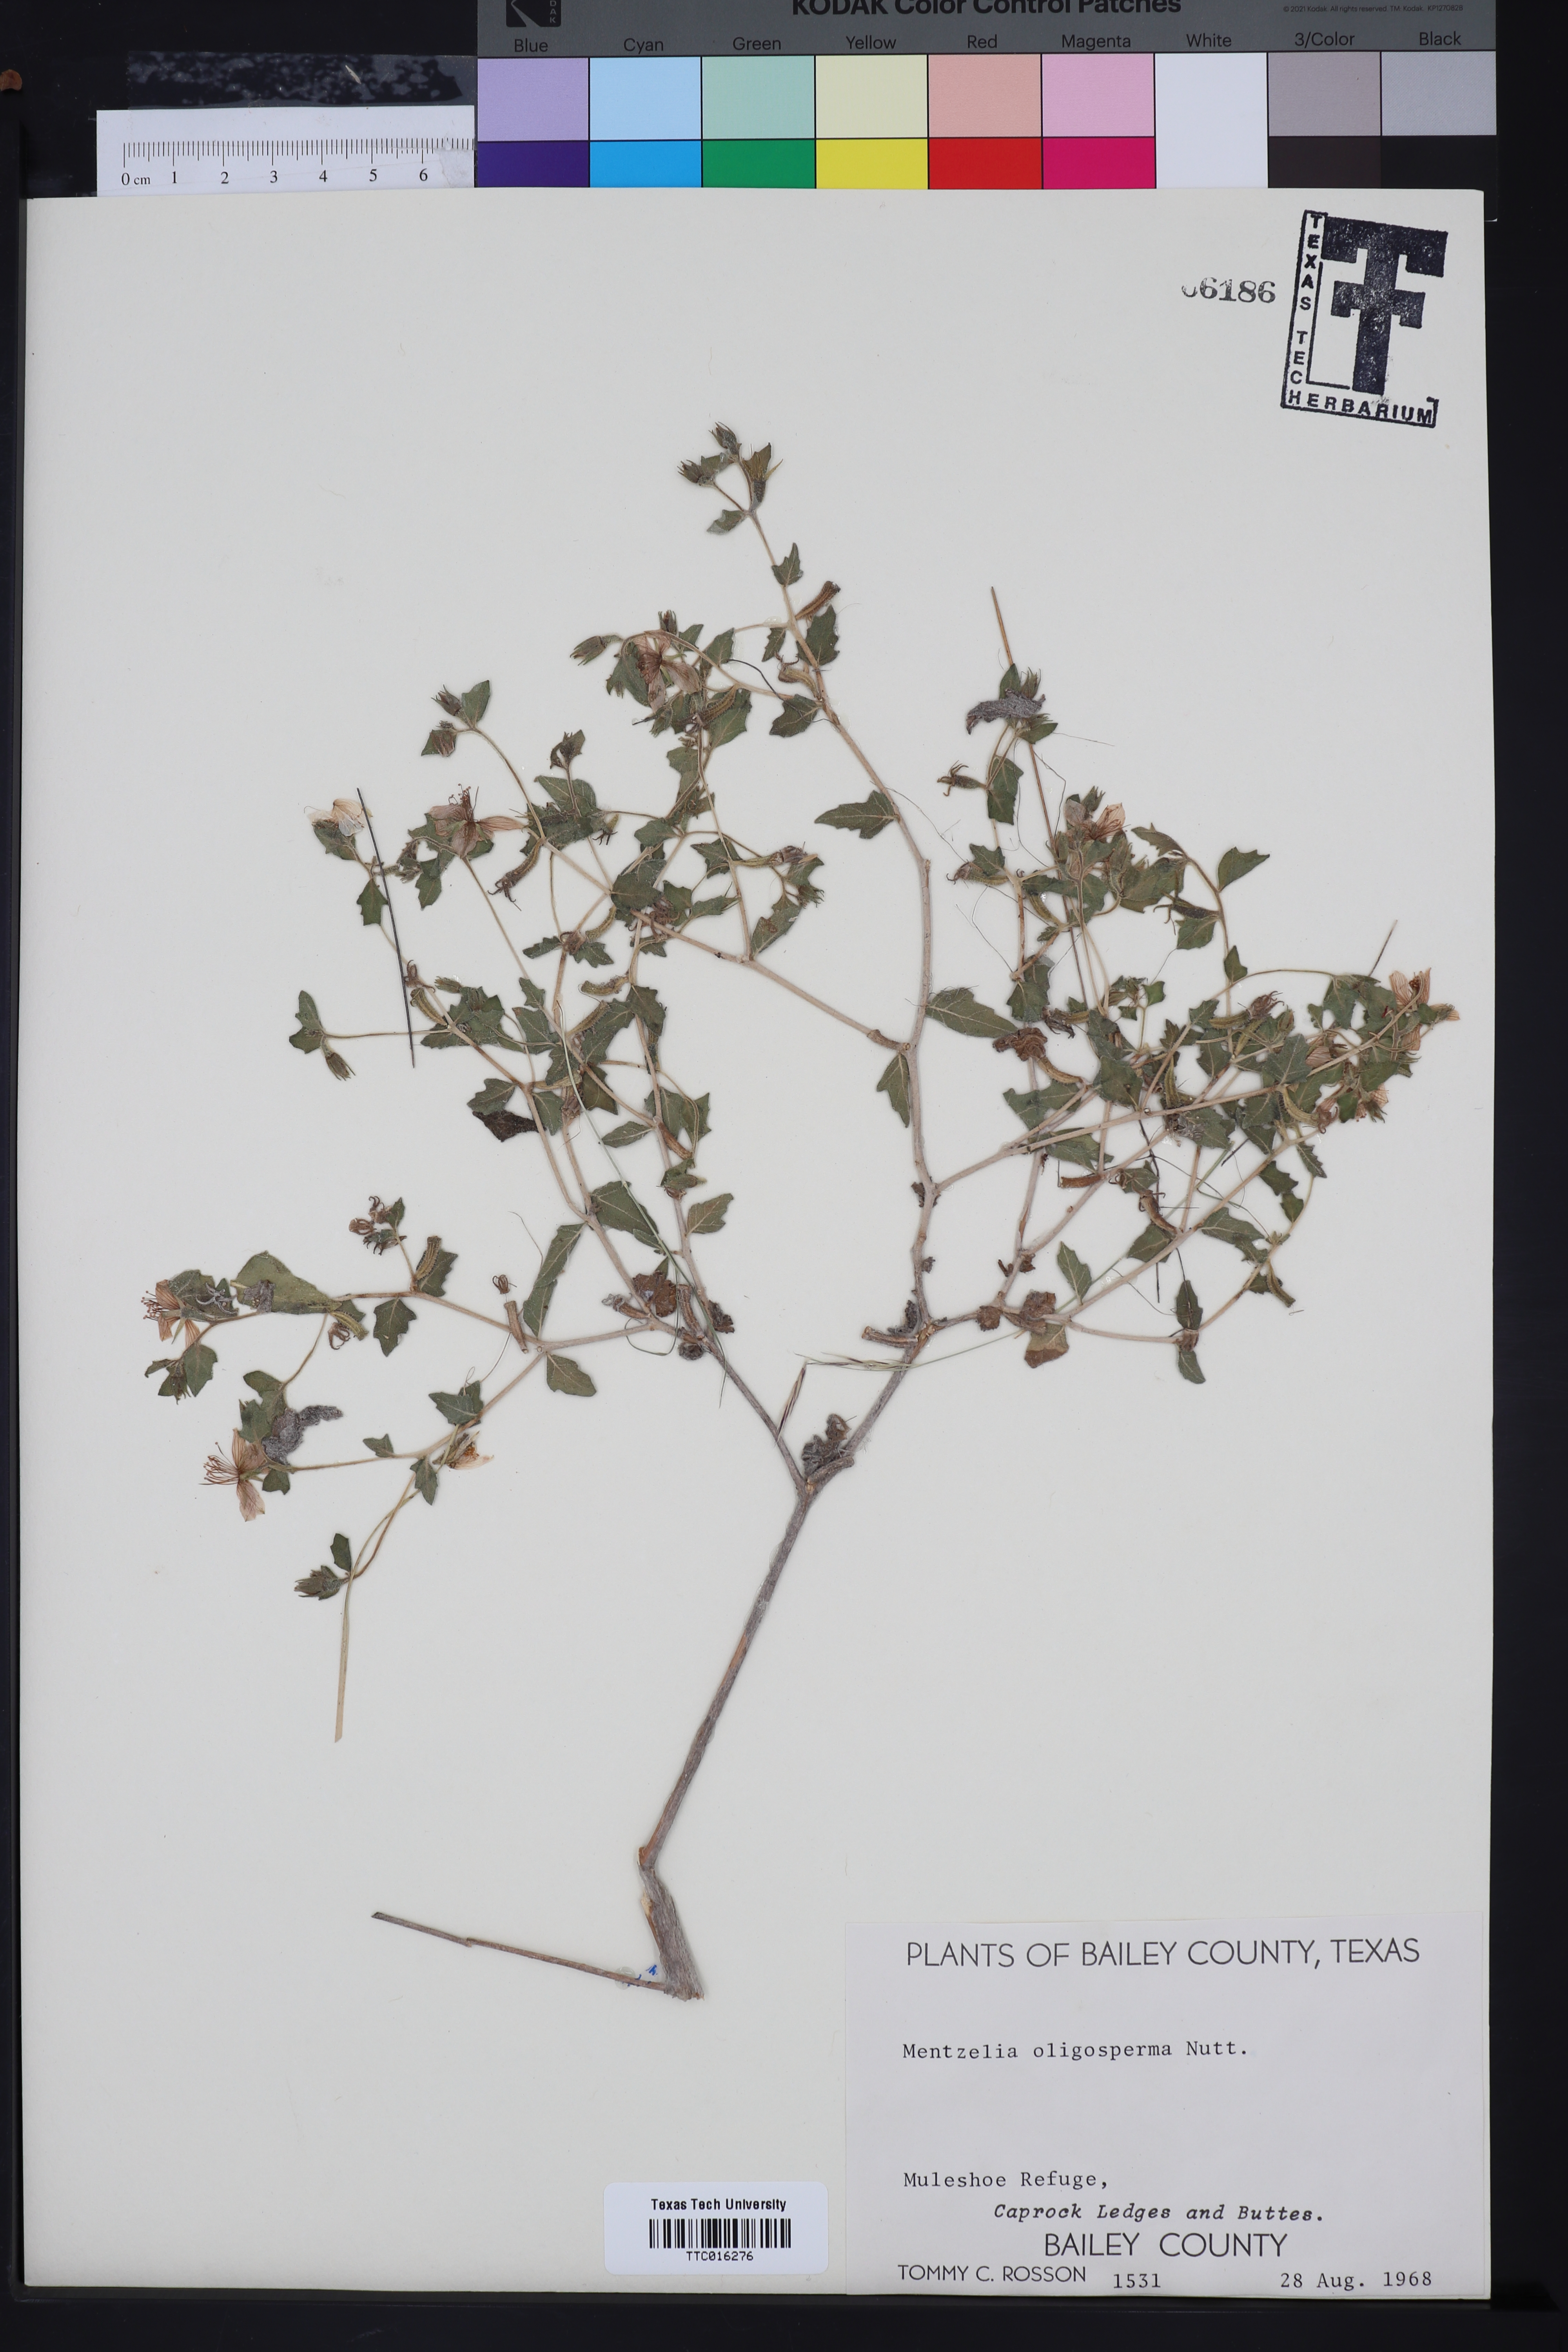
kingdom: Plantae
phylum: Tracheophyta
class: Magnoliopsida
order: Cornales
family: Loasaceae
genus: Mentzelia
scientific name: Mentzelia oligosperma
